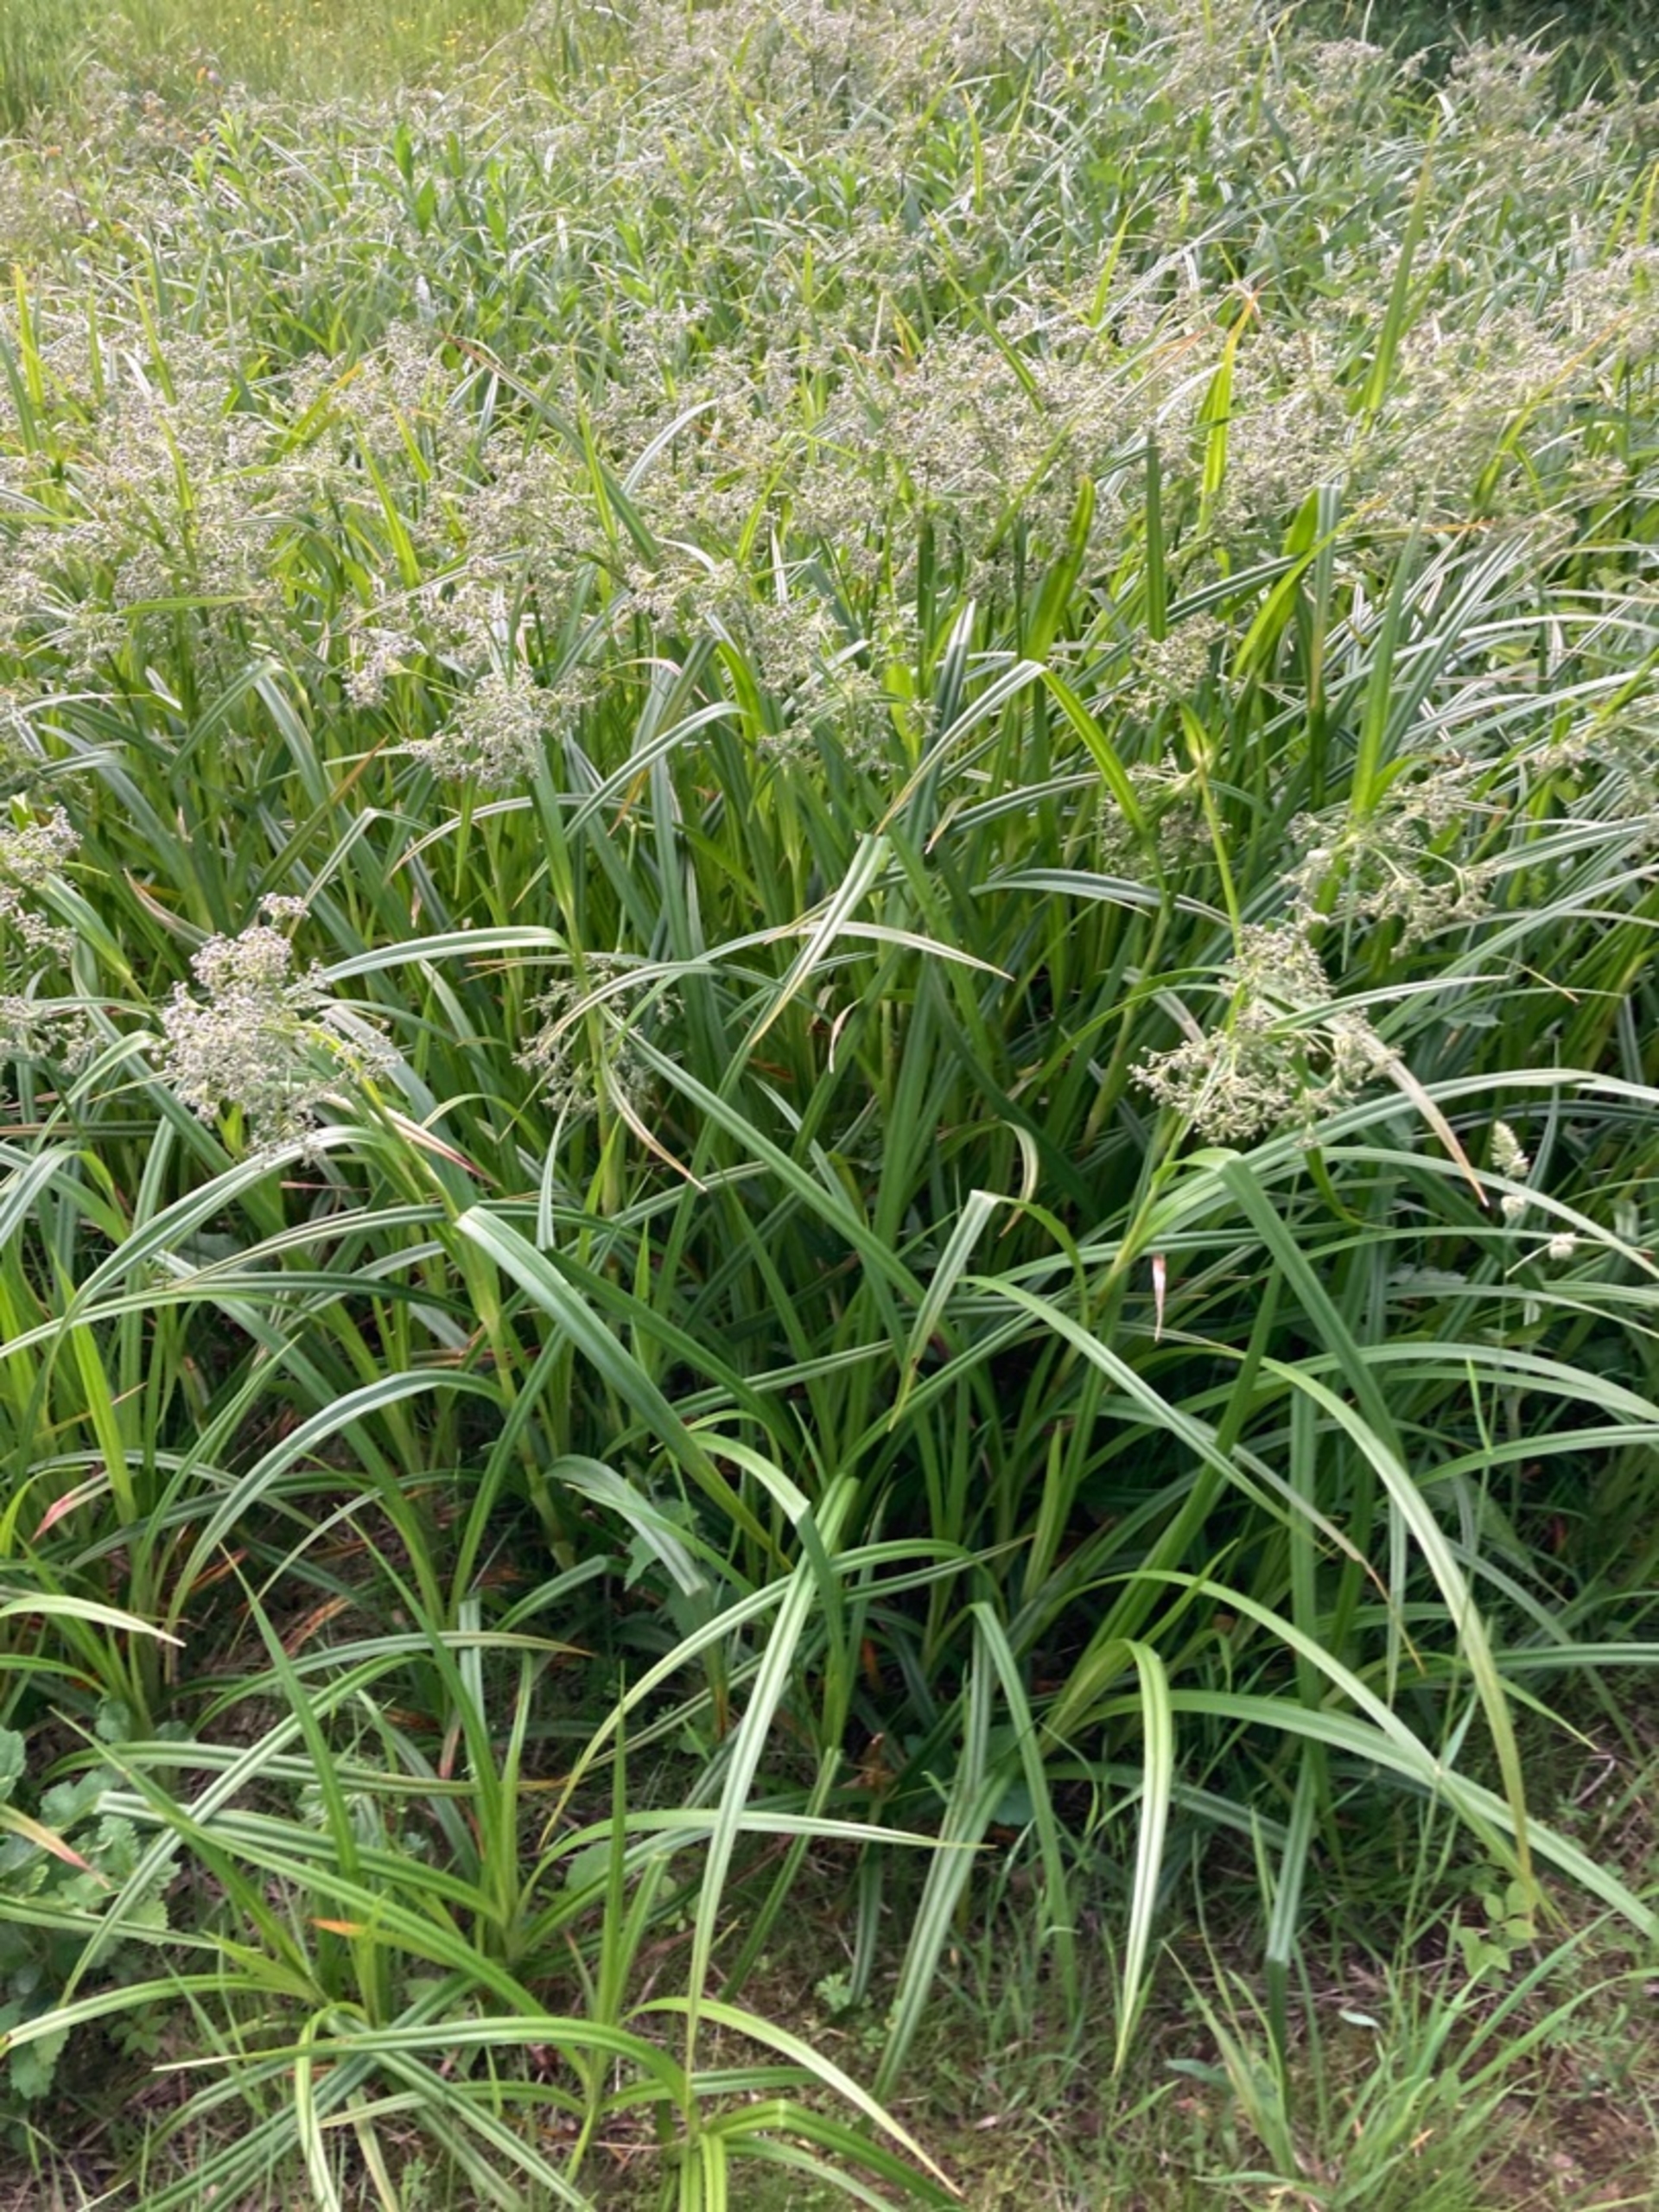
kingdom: Plantae
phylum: Tracheophyta
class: Liliopsida
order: Poales
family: Cyperaceae
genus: Scirpus
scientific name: Scirpus sylvaticus
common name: Skov-kogleaks
